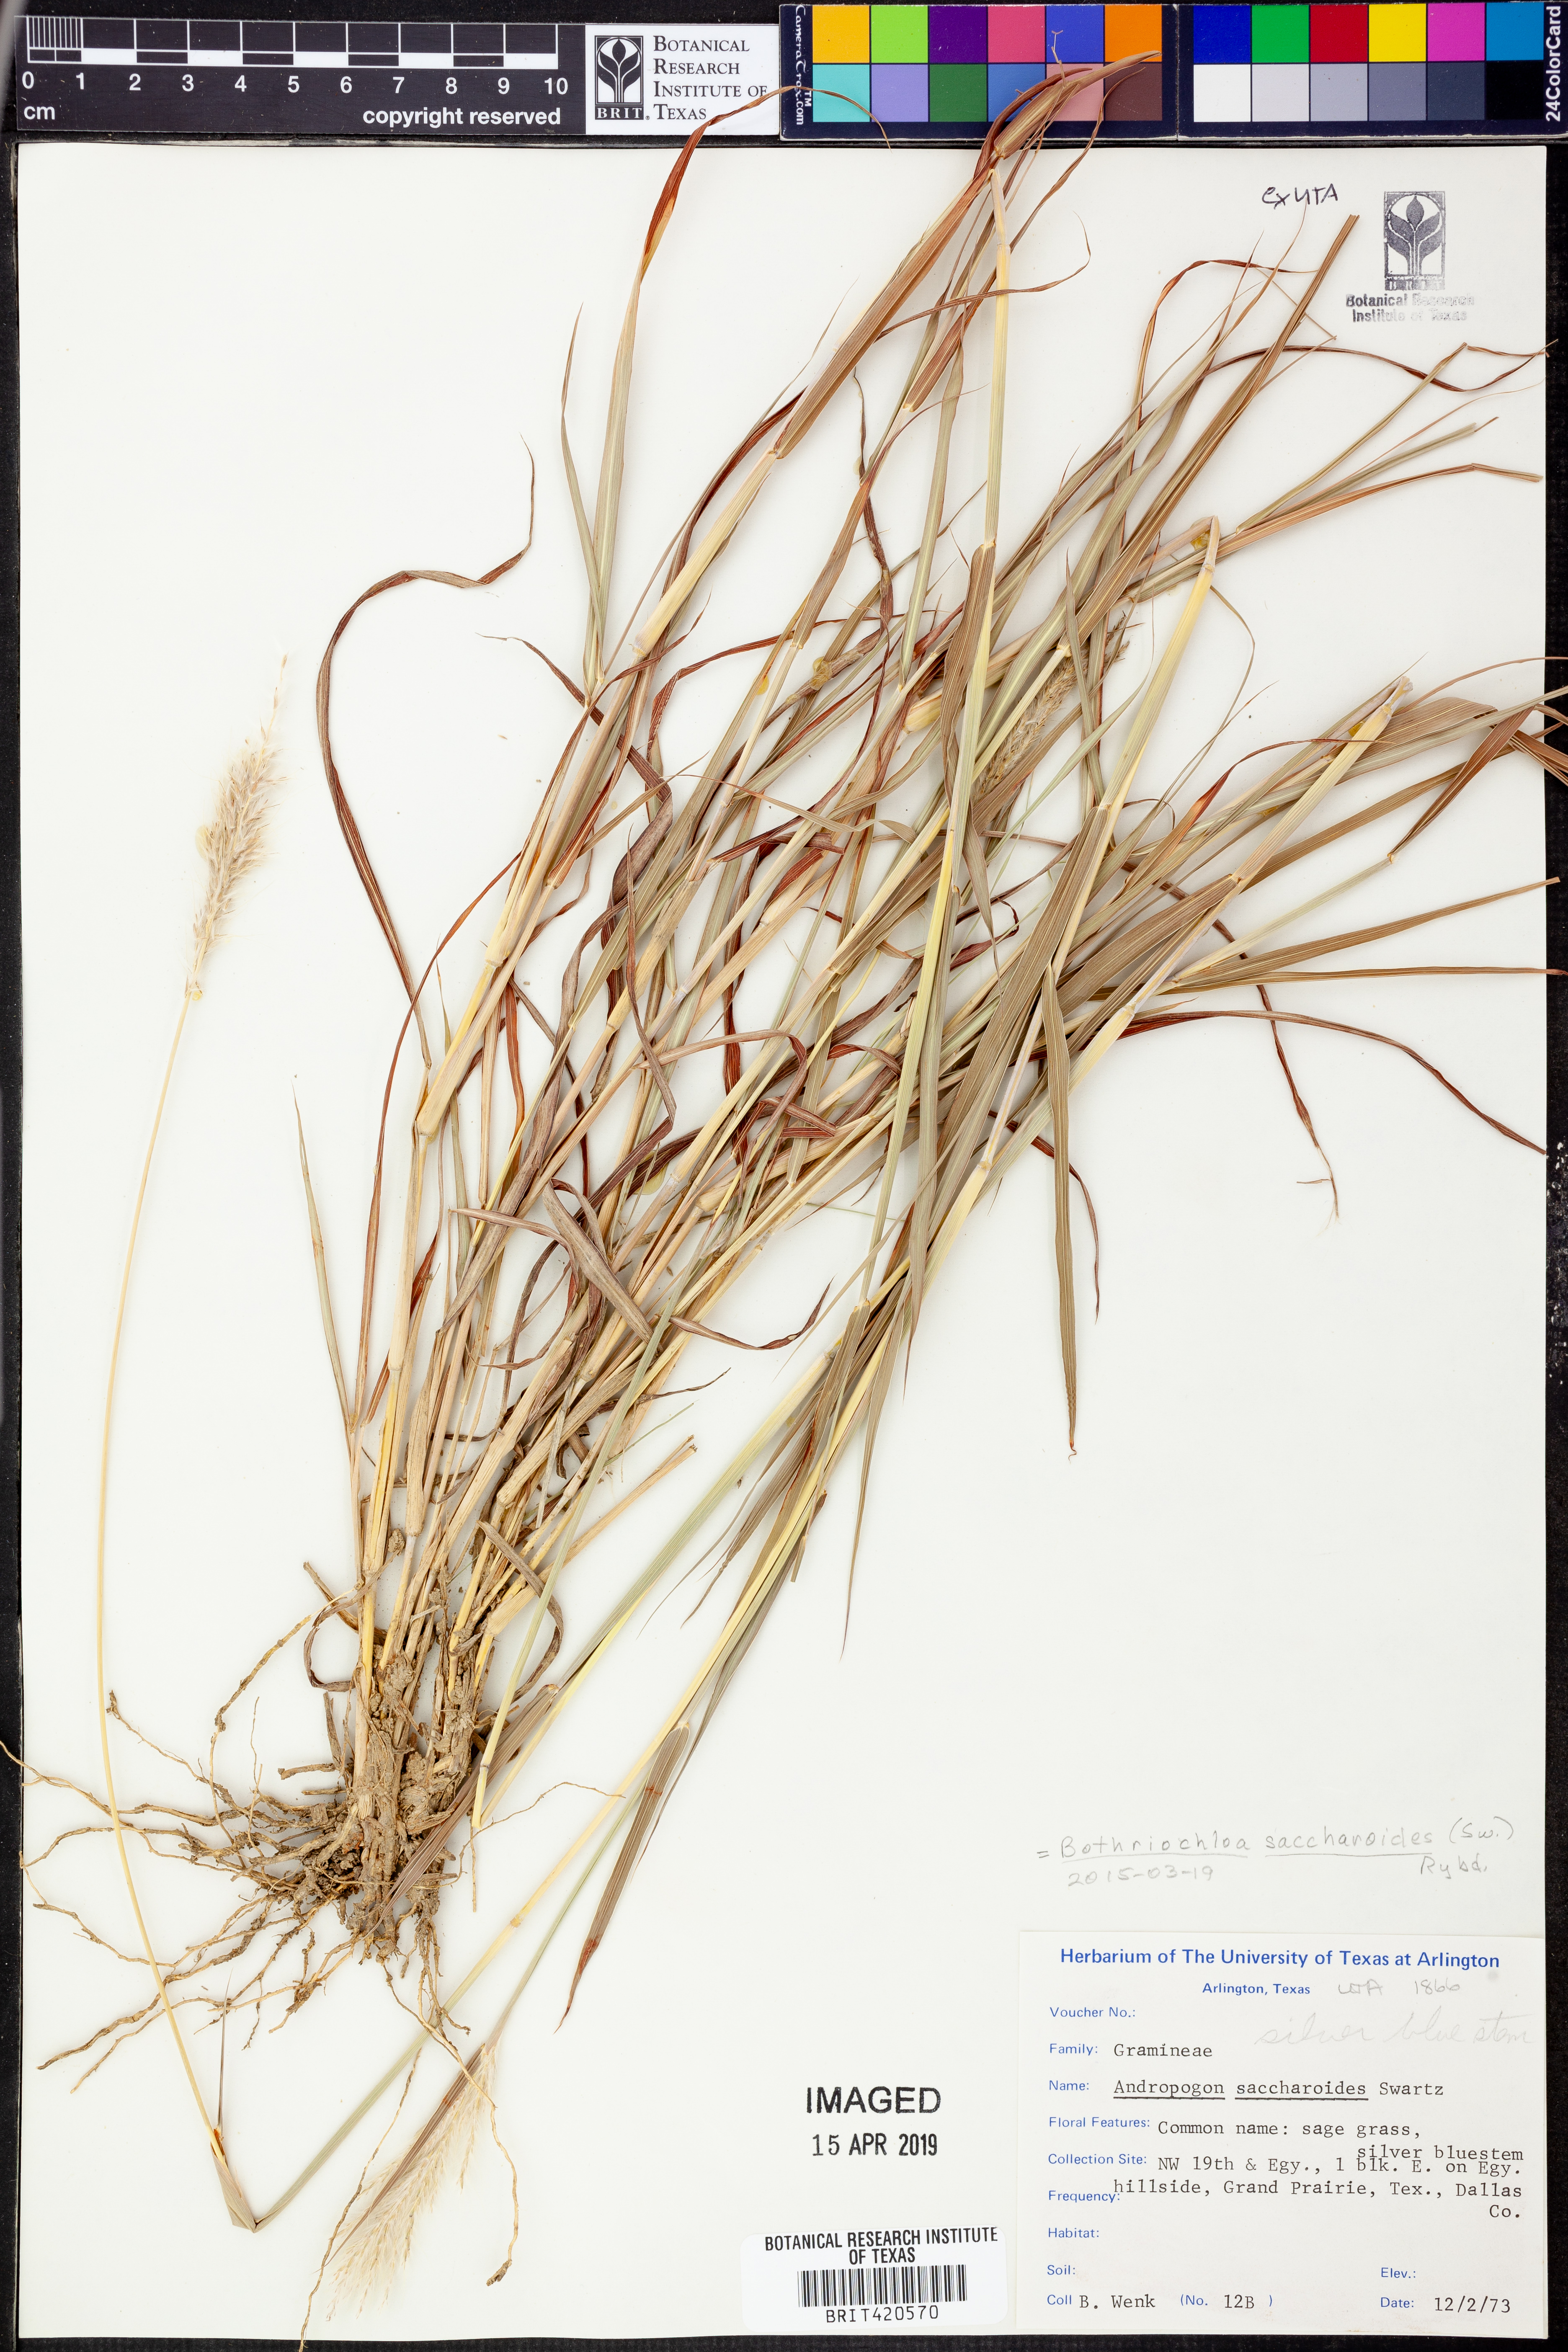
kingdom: Plantae
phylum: Tracheophyta
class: Liliopsida
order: Poales
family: Poaceae
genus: Bothriochloa
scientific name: Bothriochloa saccharoides
